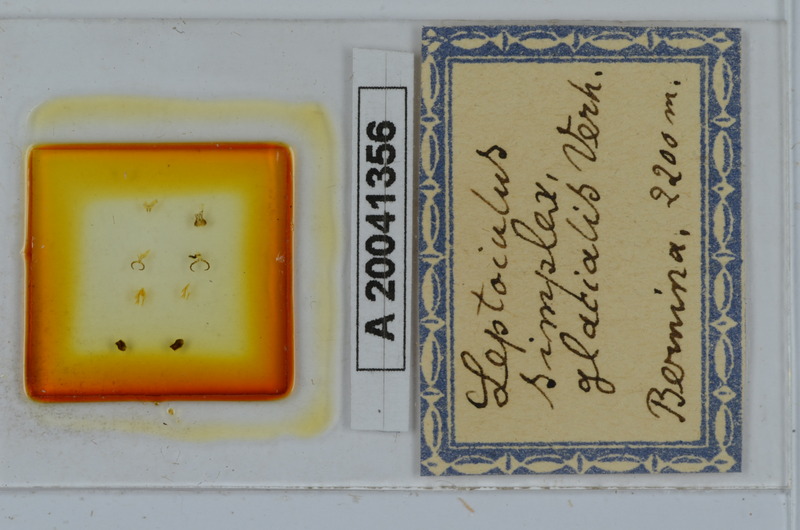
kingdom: Animalia
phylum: Arthropoda
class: Diplopoda
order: Julida
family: Julidae
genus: Leptoiulus
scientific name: Leptoiulus simplex
